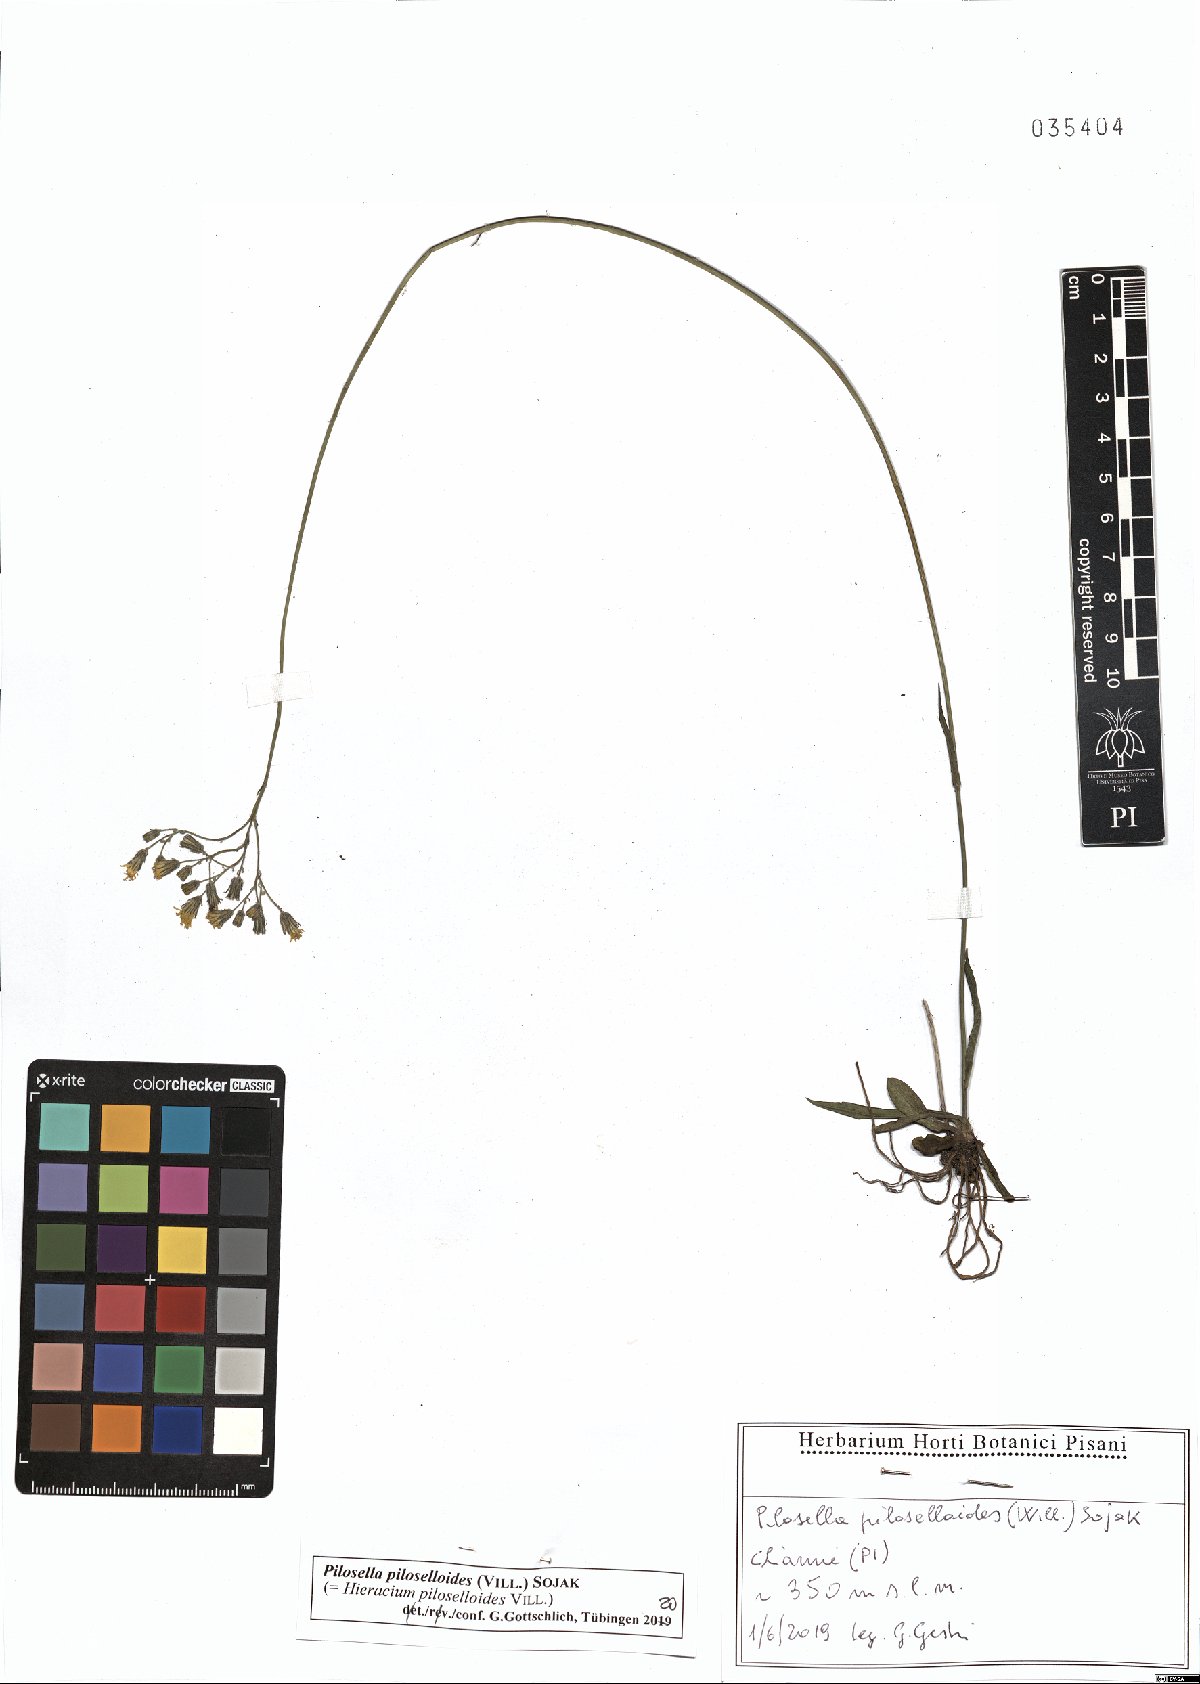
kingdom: Plantae
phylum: Tracheophyta
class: Magnoliopsida
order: Asterales
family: Asteraceae
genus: Pilosella
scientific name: Pilosella piloselloides
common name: Glaucous king-devil
